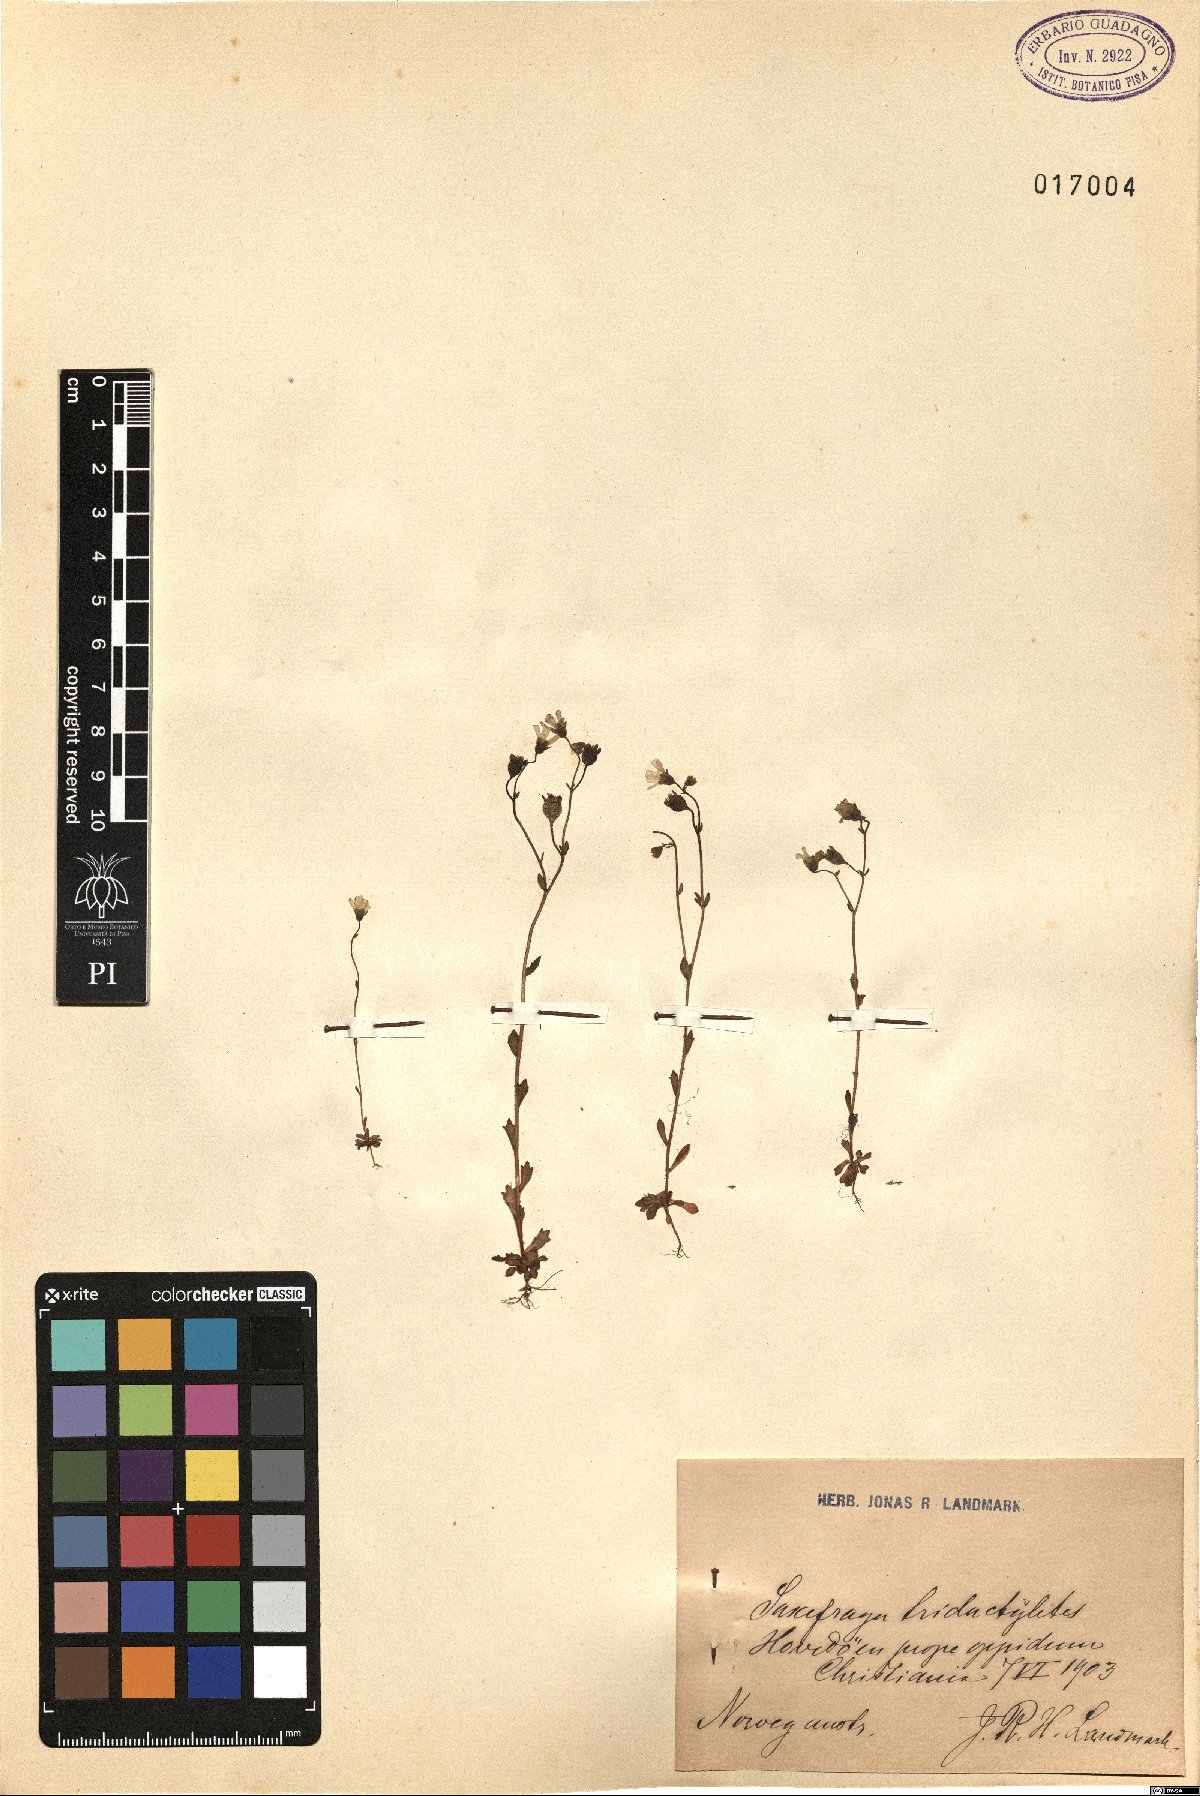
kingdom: Plantae
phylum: Tracheophyta
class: Magnoliopsida
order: Saxifragales
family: Saxifragaceae
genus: Saxifraga
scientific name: Saxifraga tridactylites
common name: Rue-leaved saxifrage
